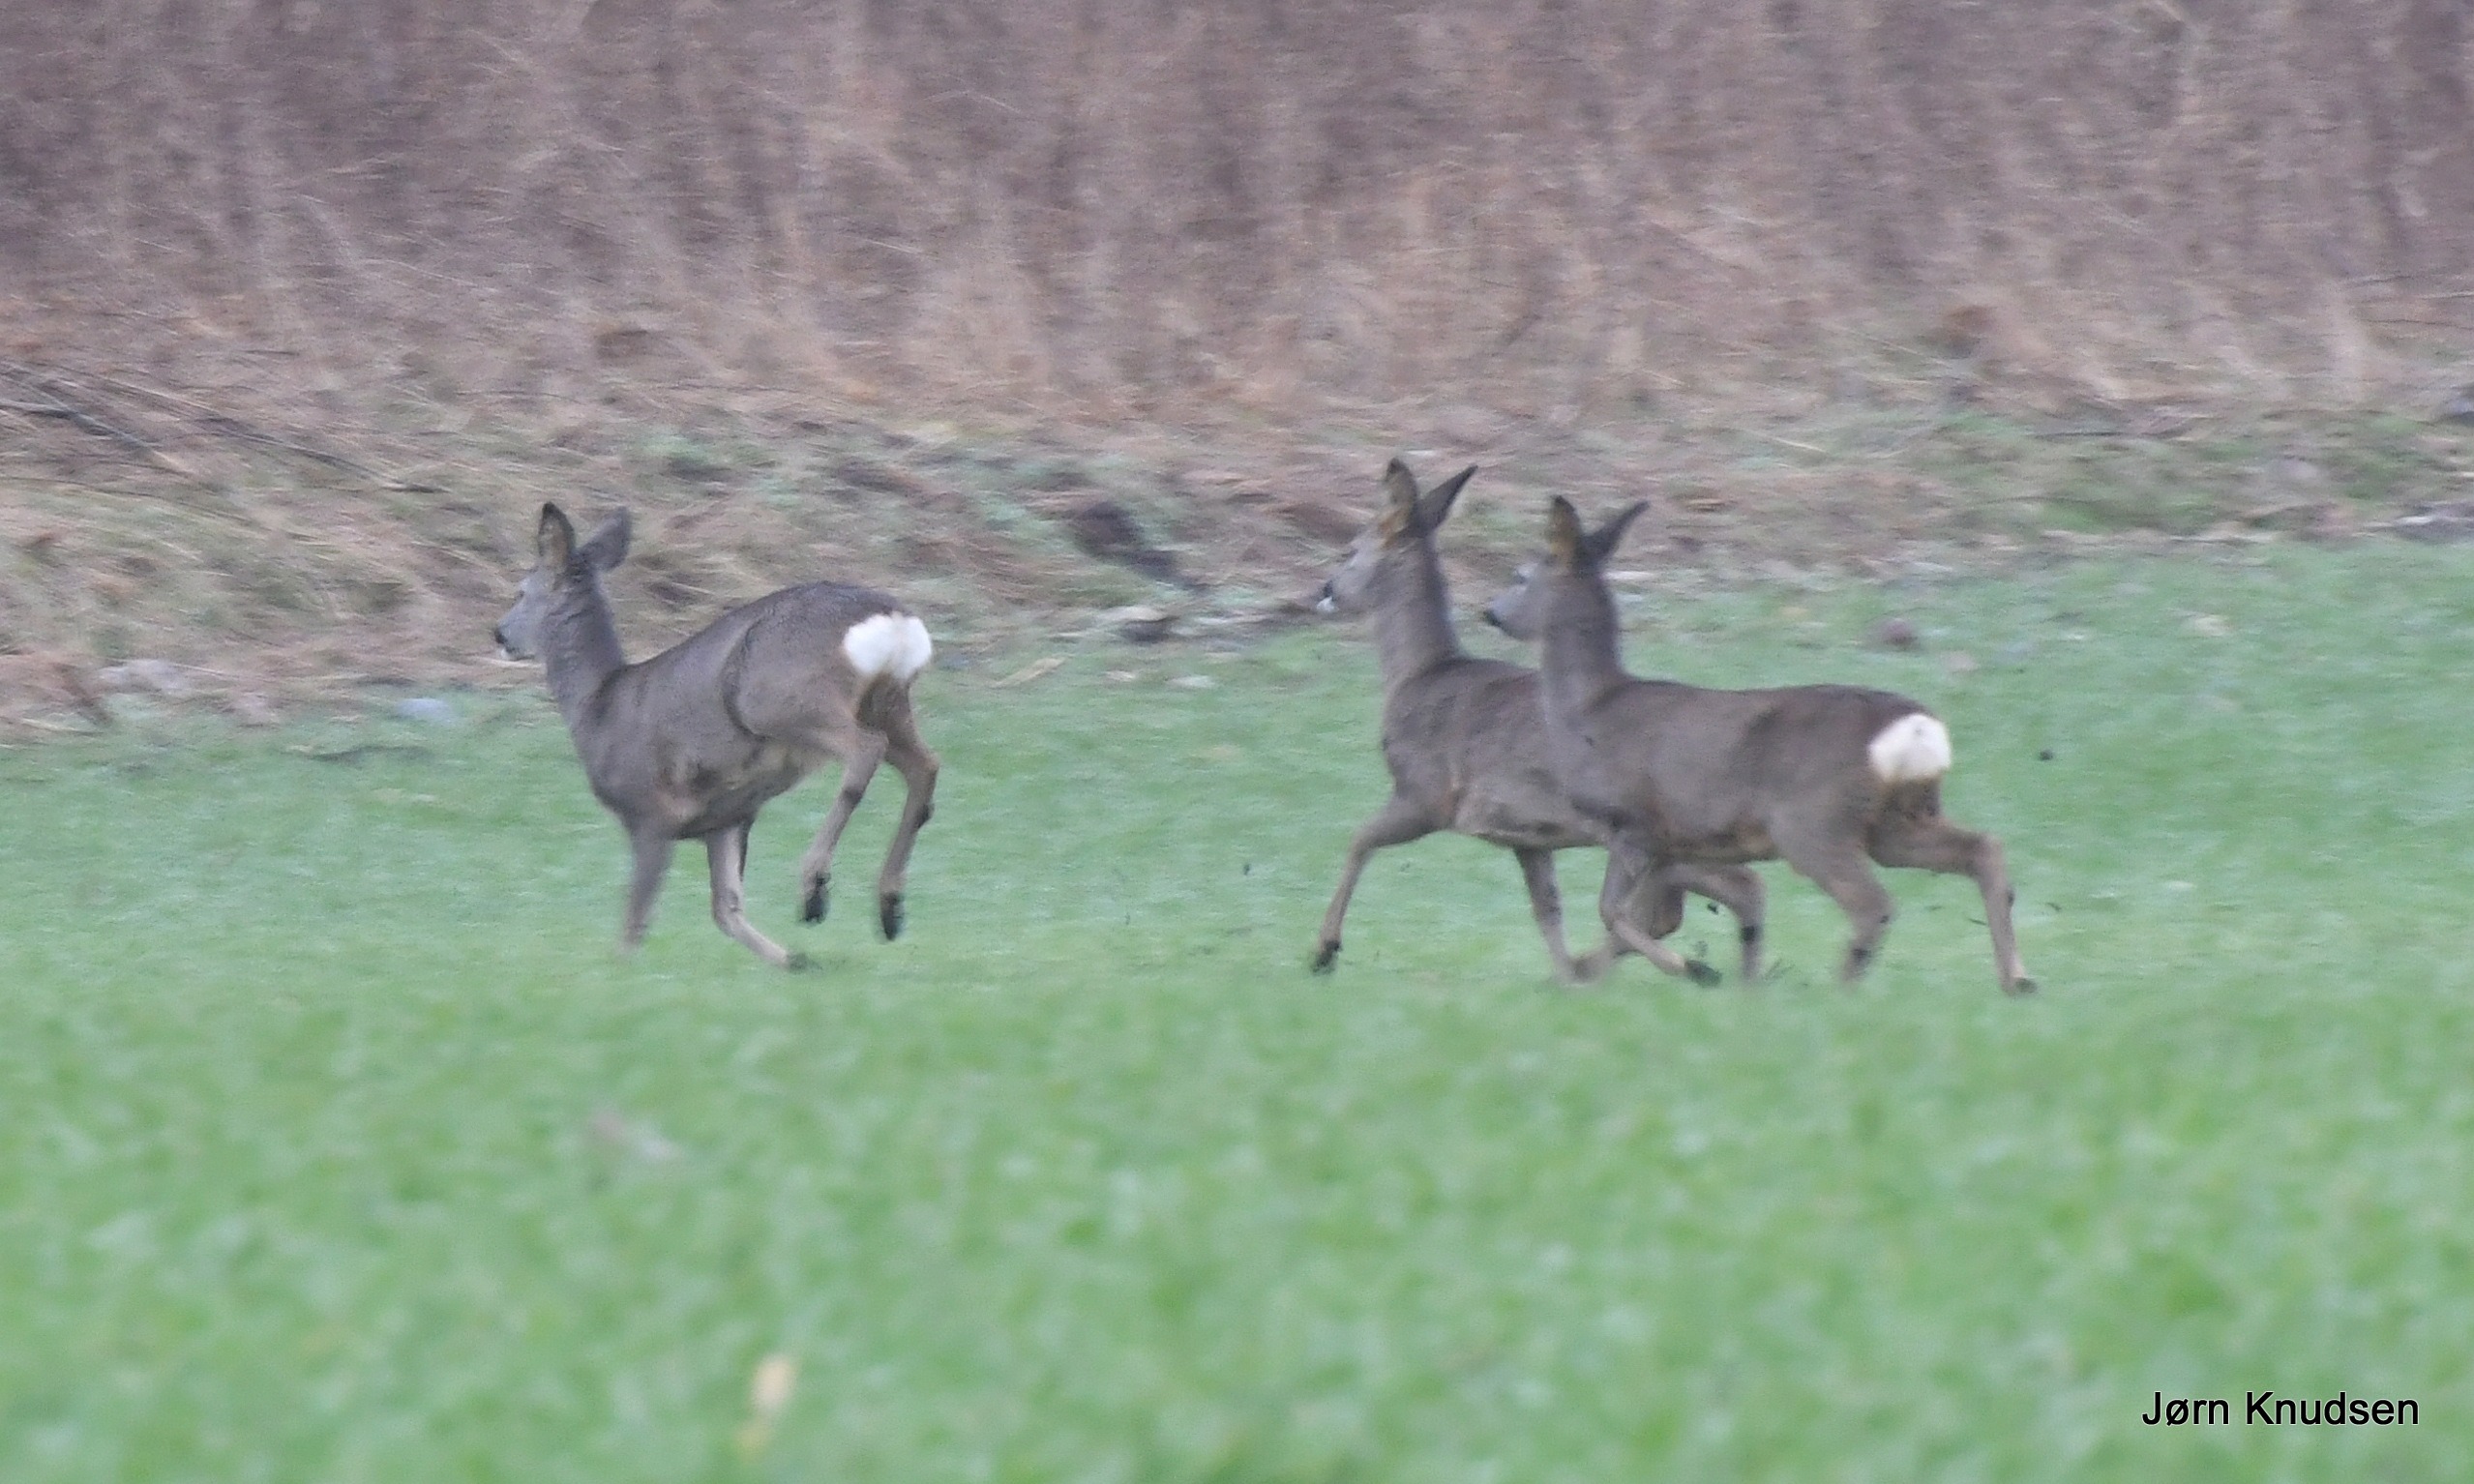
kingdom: Animalia
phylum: Chordata
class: Mammalia
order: Artiodactyla
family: Cervidae
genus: Capreolus
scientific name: Capreolus capreolus
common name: Rådyr
